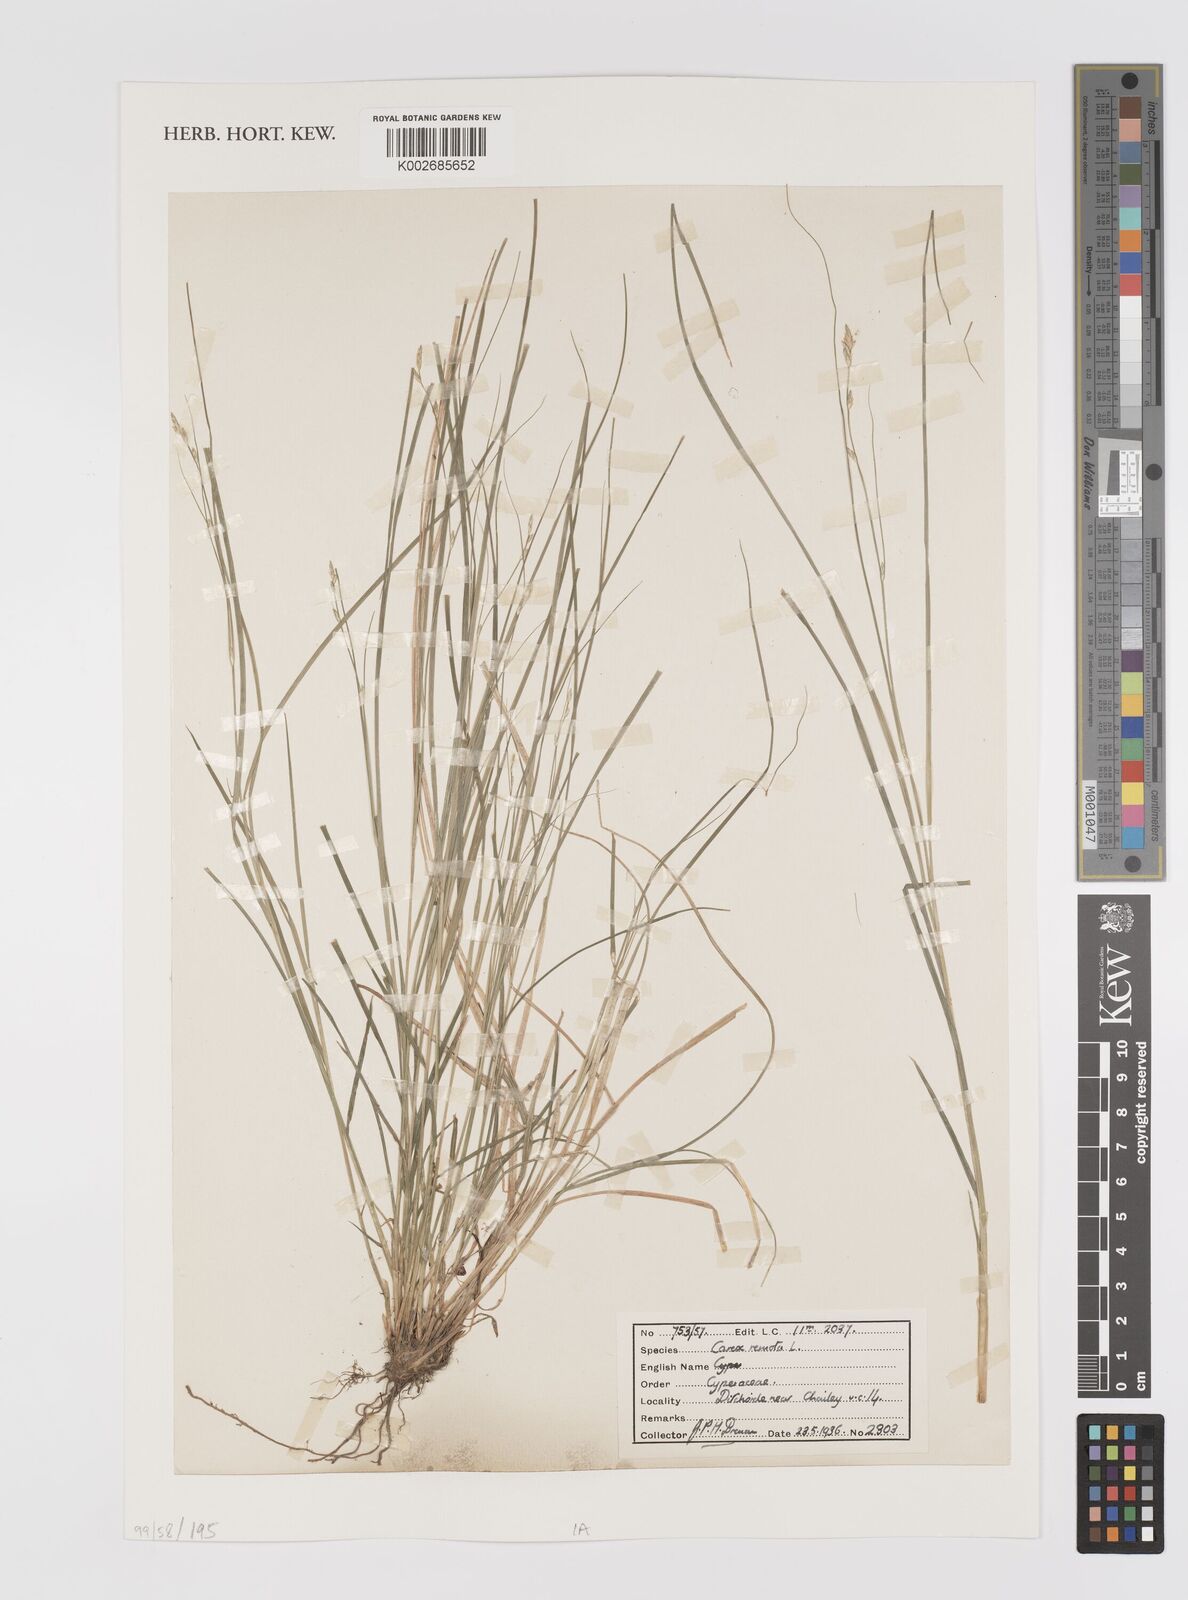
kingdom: Plantae
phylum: Tracheophyta
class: Liliopsida
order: Poales
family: Cyperaceae
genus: Carex
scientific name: Carex remota
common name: Remote sedge
